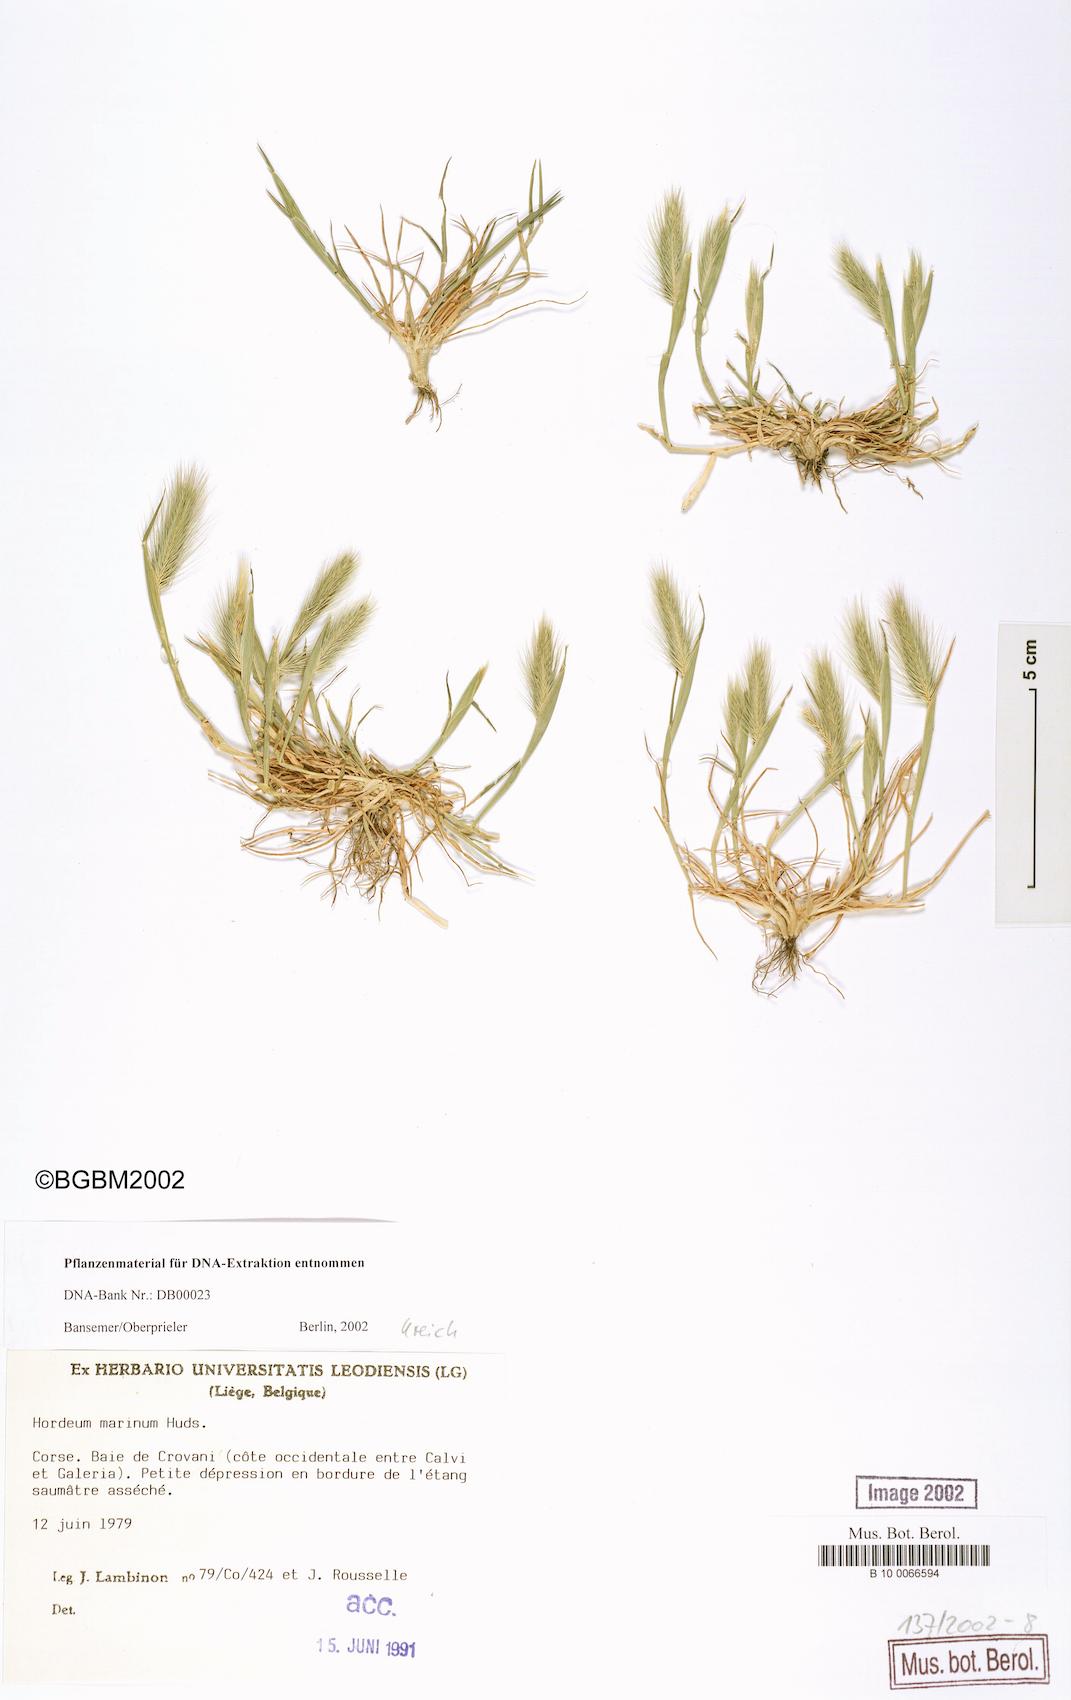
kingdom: Plantae
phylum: Tracheophyta
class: Liliopsida
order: Poales
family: Poaceae
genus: Hordeum
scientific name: Hordeum marinum
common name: Sea barley
